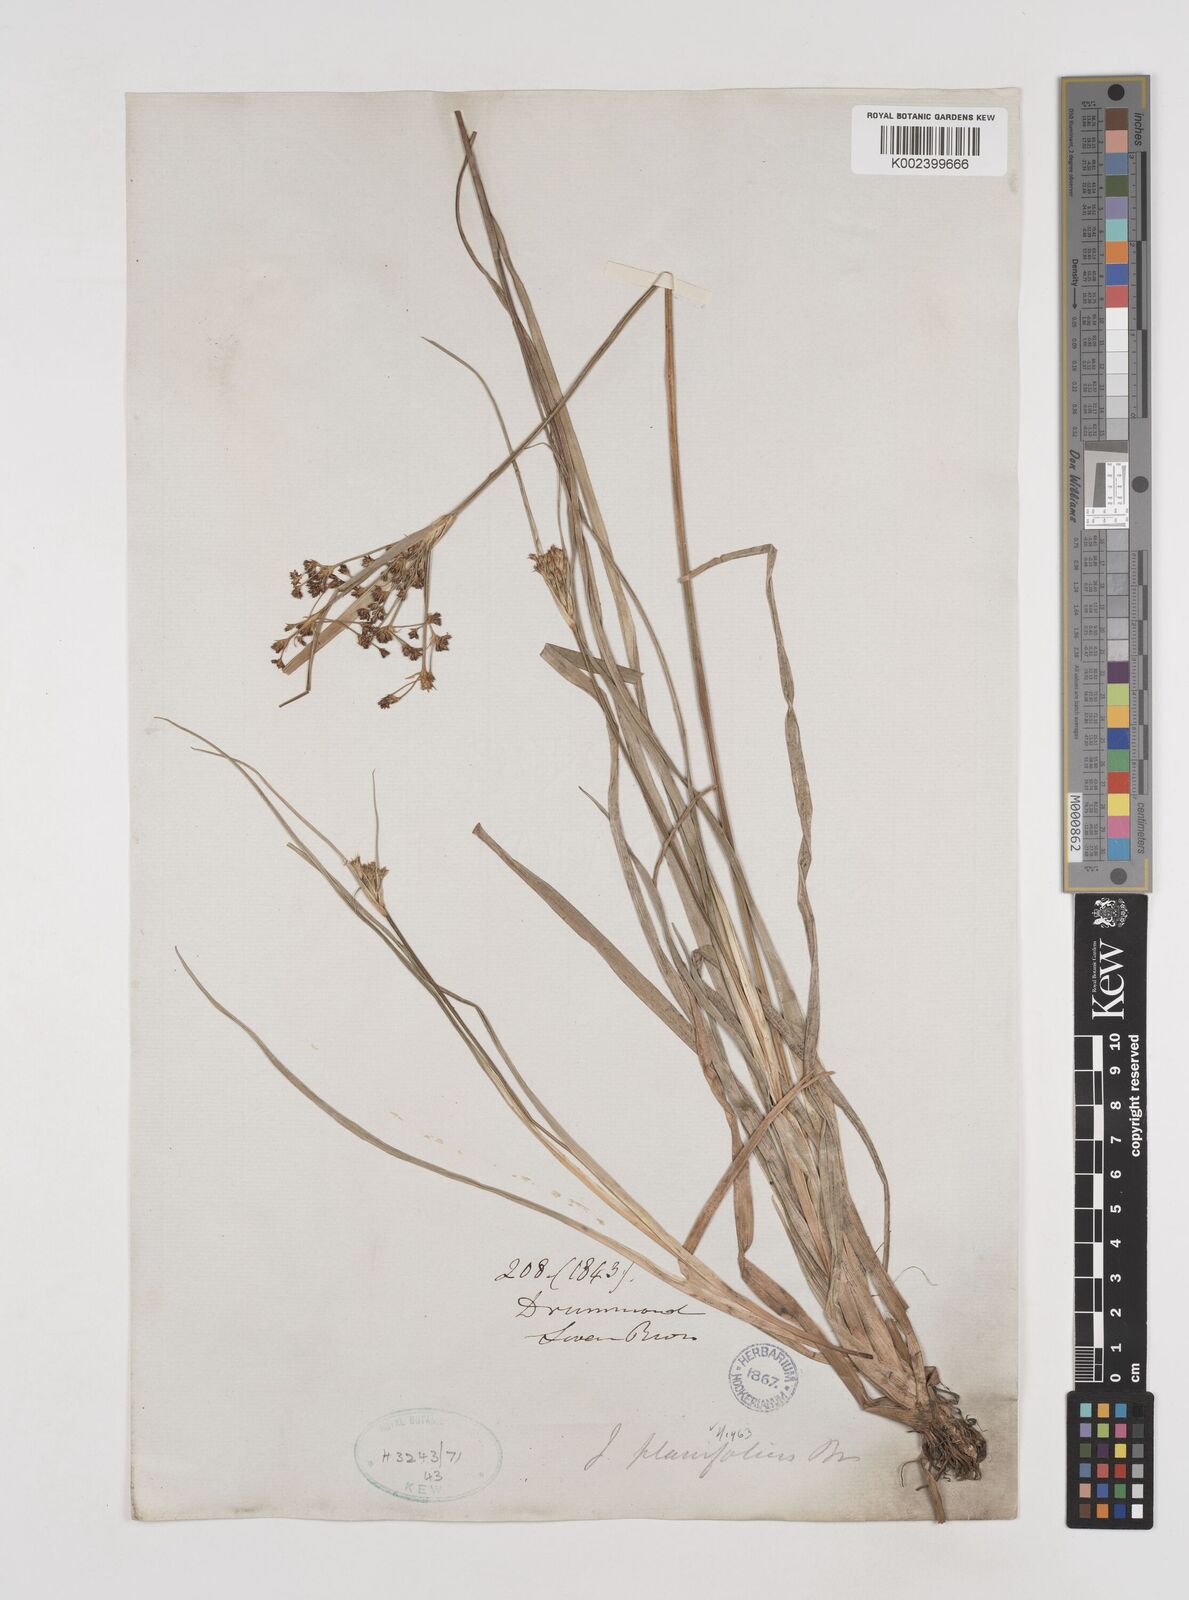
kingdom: Plantae
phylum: Tracheophyta
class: Liliopsida
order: Poales
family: Juncaceae
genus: Juncus
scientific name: Juncus planifolius
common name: Broadleaf rush
